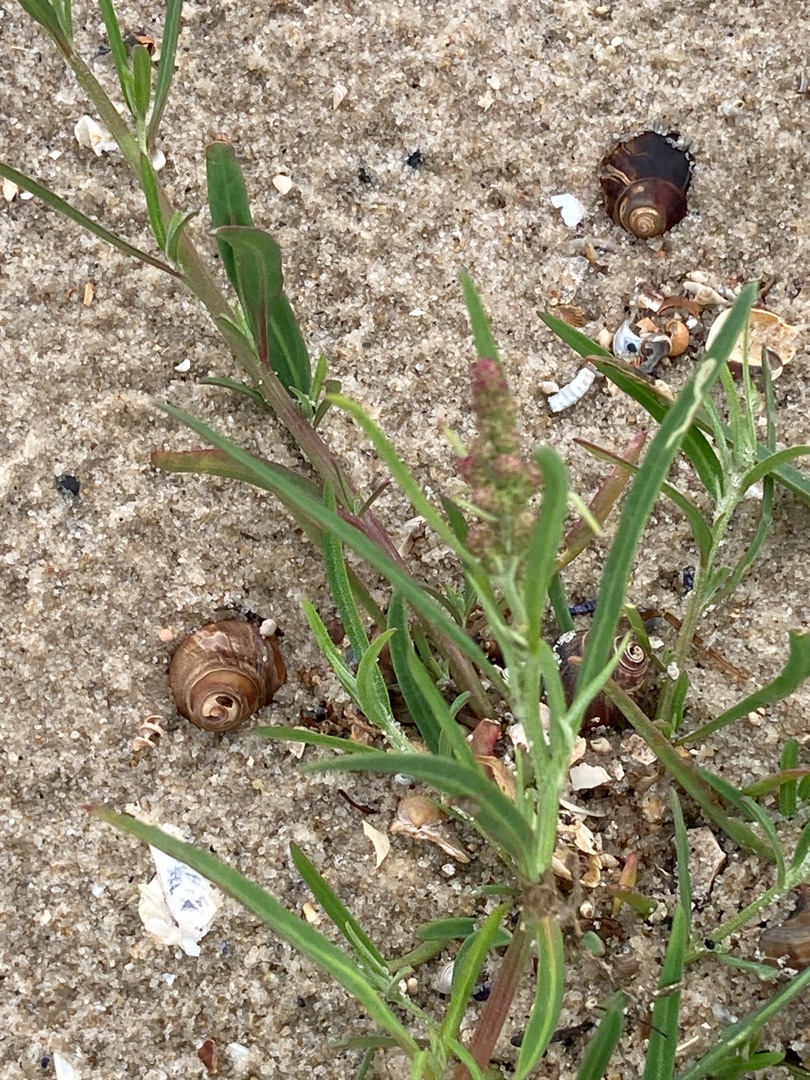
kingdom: Plantae
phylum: Tracheophyta
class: Magnoliopsida
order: Caryophyllales
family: Amaranthaceae
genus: Atriplex
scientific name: Atriplex littoralis
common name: Strand-mælde
